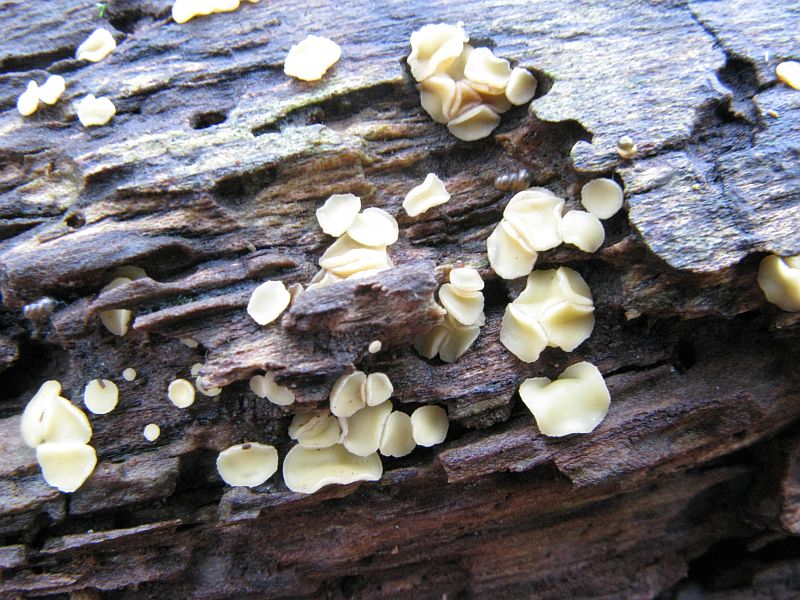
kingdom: Fungi
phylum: Ascomycota
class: Leotiomycetes
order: Helotiales
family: Helotiaceae
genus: Hymenoscyphus
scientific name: Hymenoscyphus
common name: stilkskive
